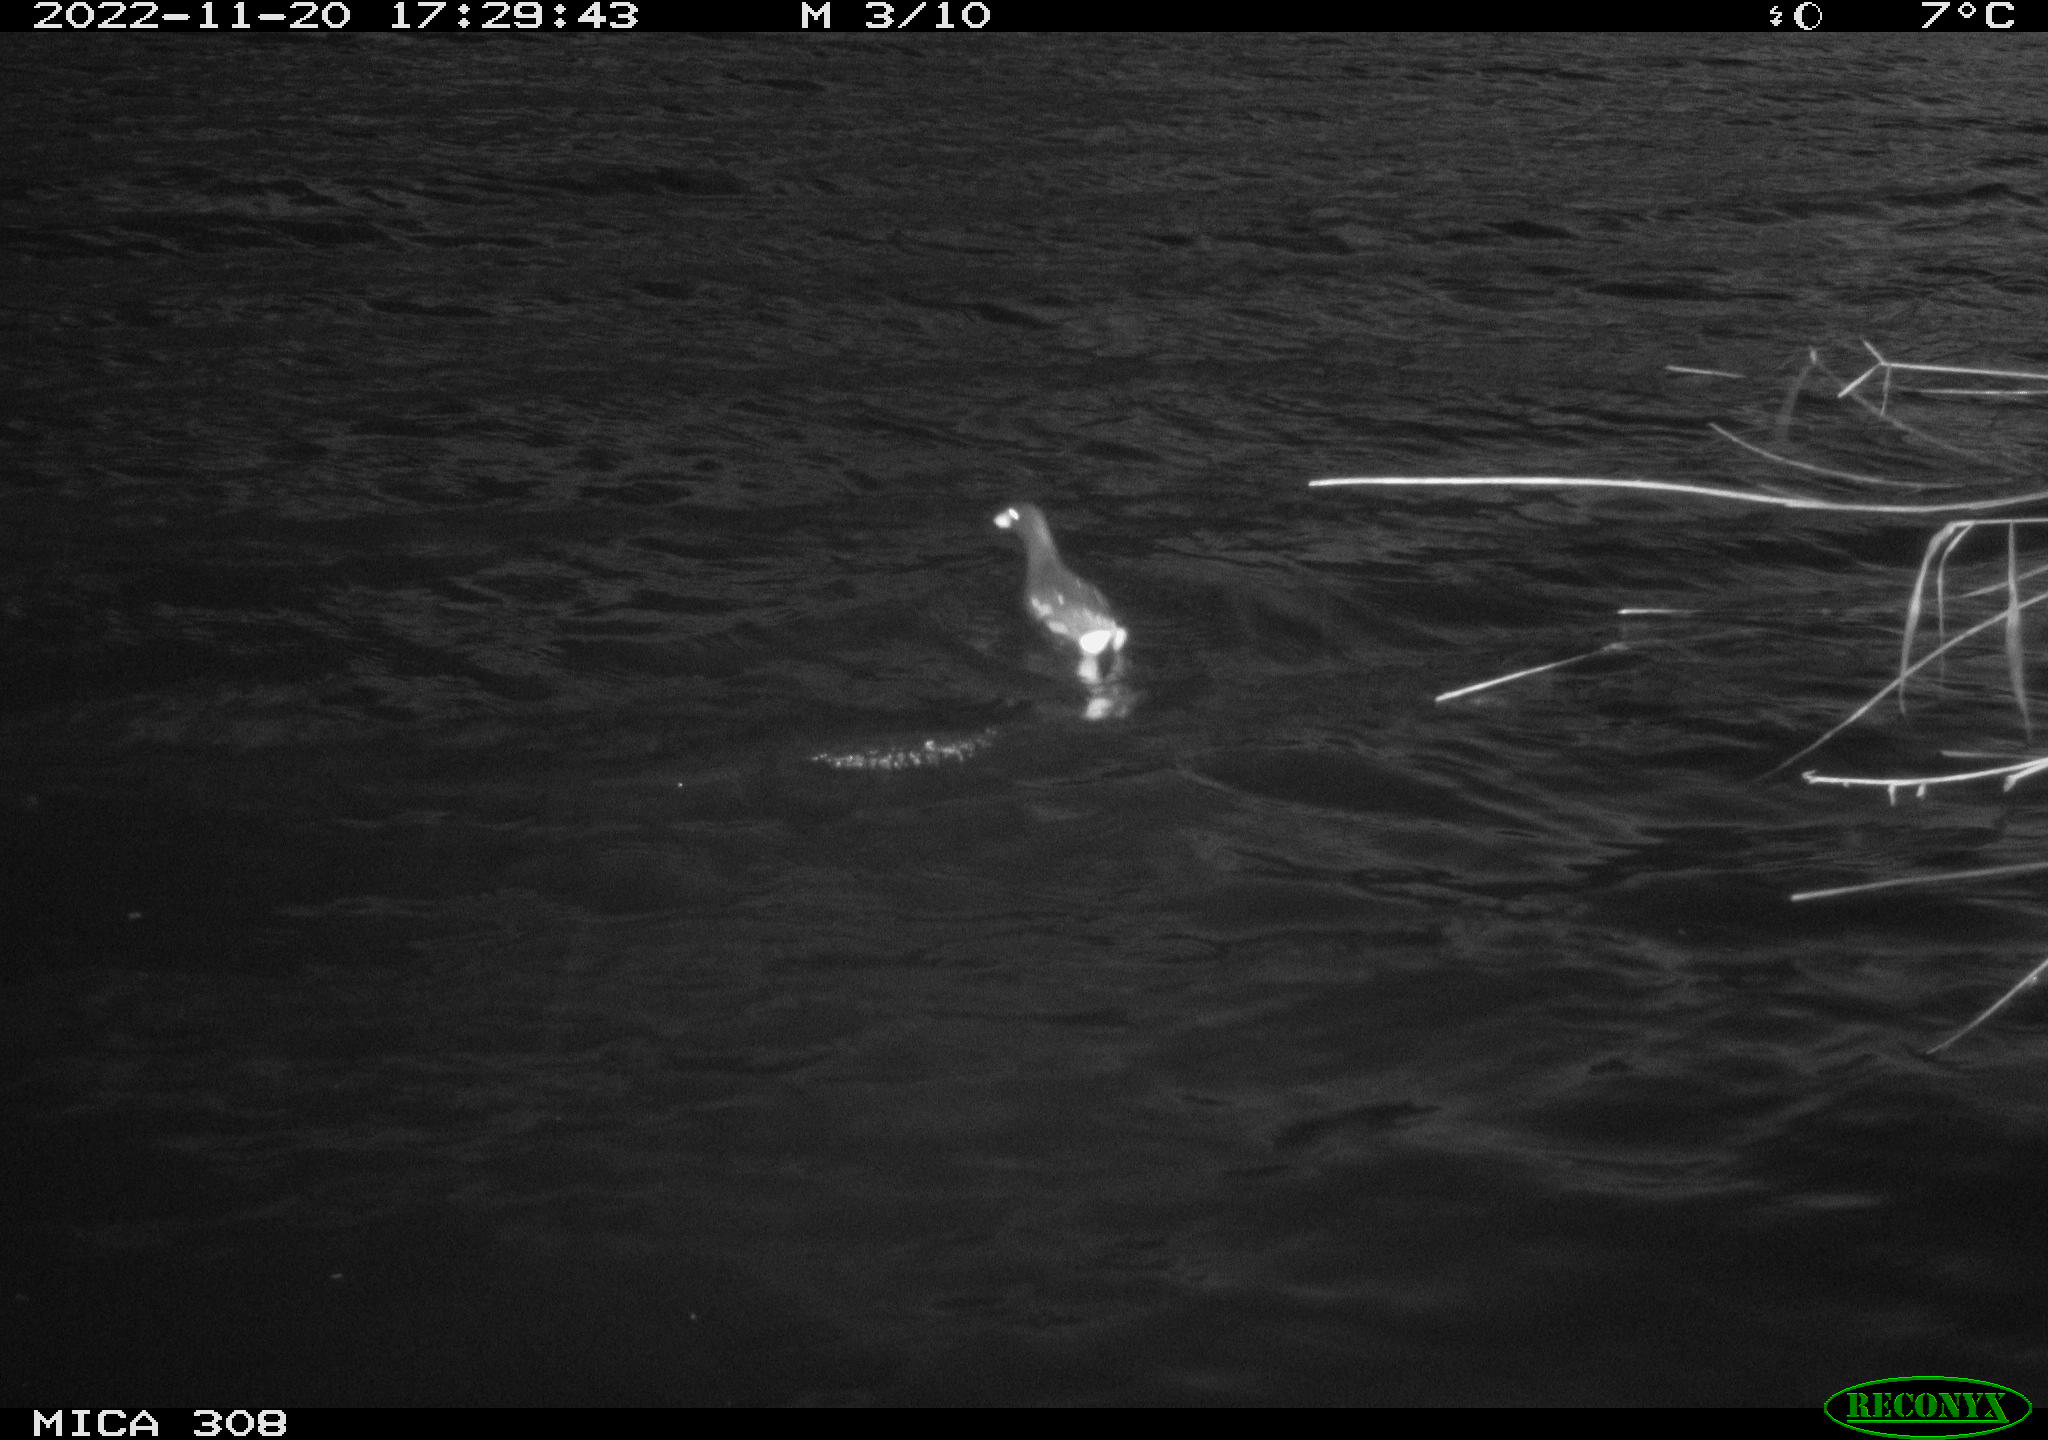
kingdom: Animalia
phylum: Chordata
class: Aves
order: Gruiformes
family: Rallidae
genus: Gallinula
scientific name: Gallinula chloropus
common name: Common moorhen
